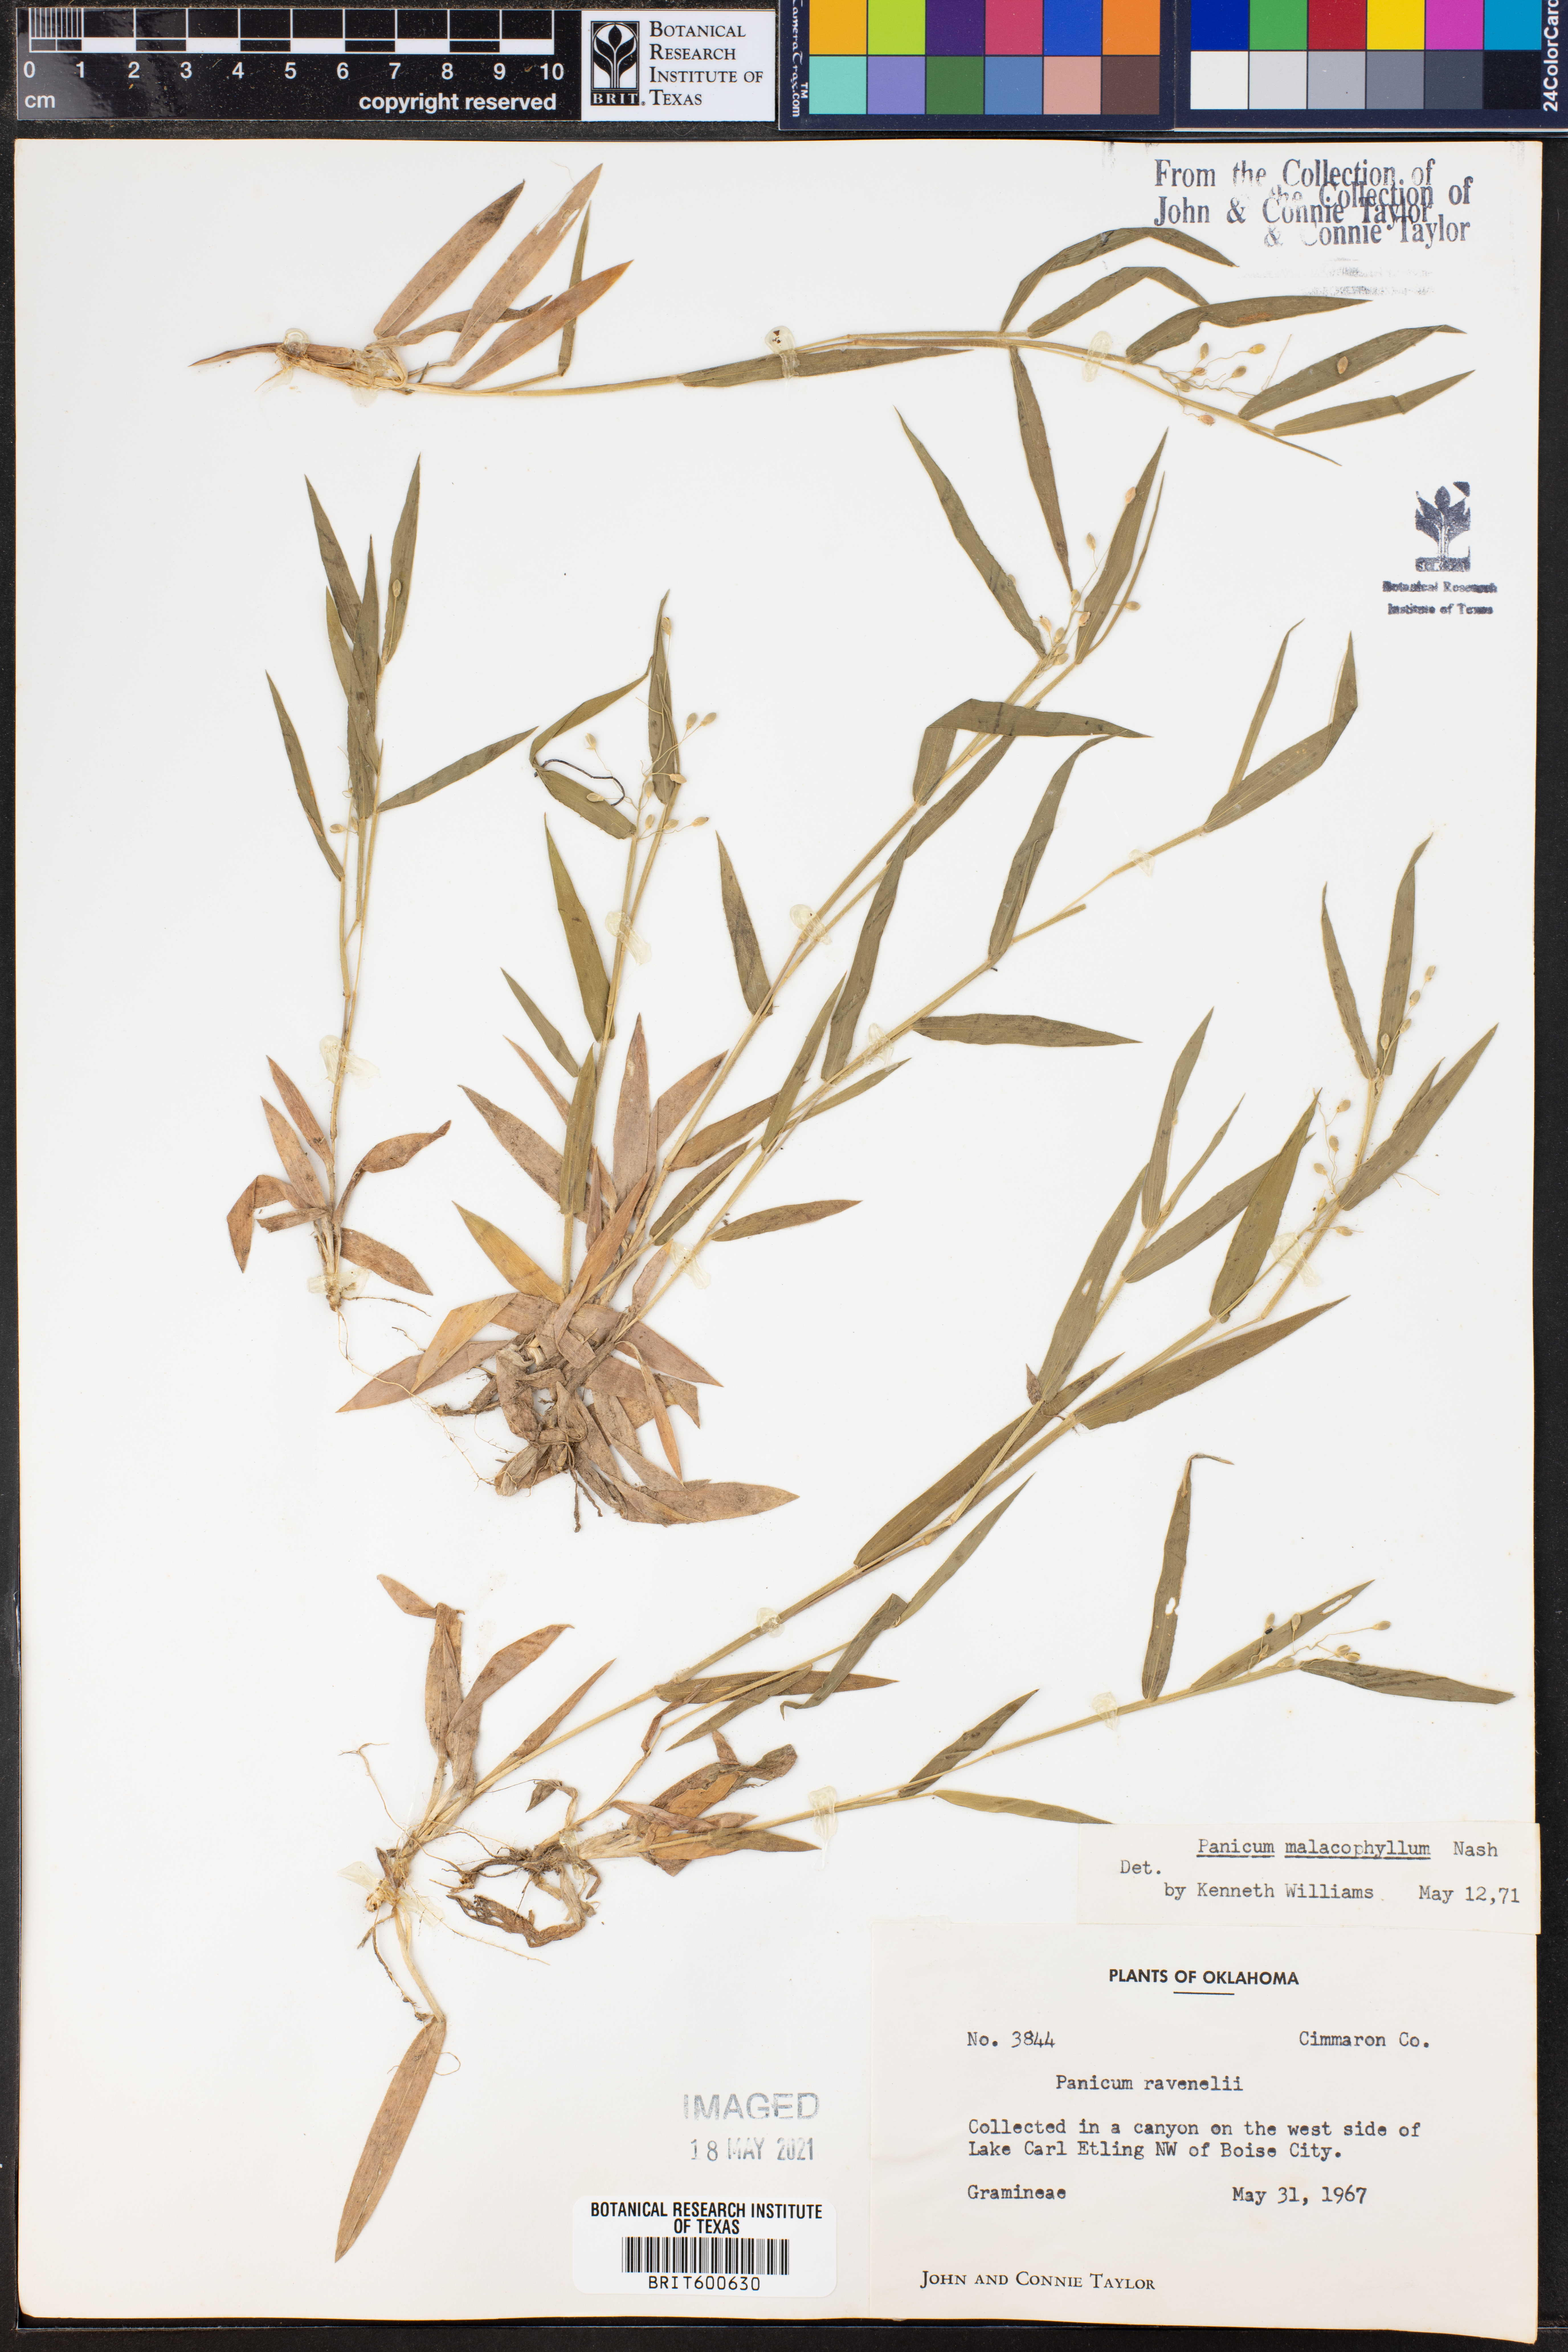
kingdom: Plantae
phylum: Tracheophyta
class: Liliopsida
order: Poales
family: Poaceae
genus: Dichanthelium
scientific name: Dichanthelium malacophyllum
